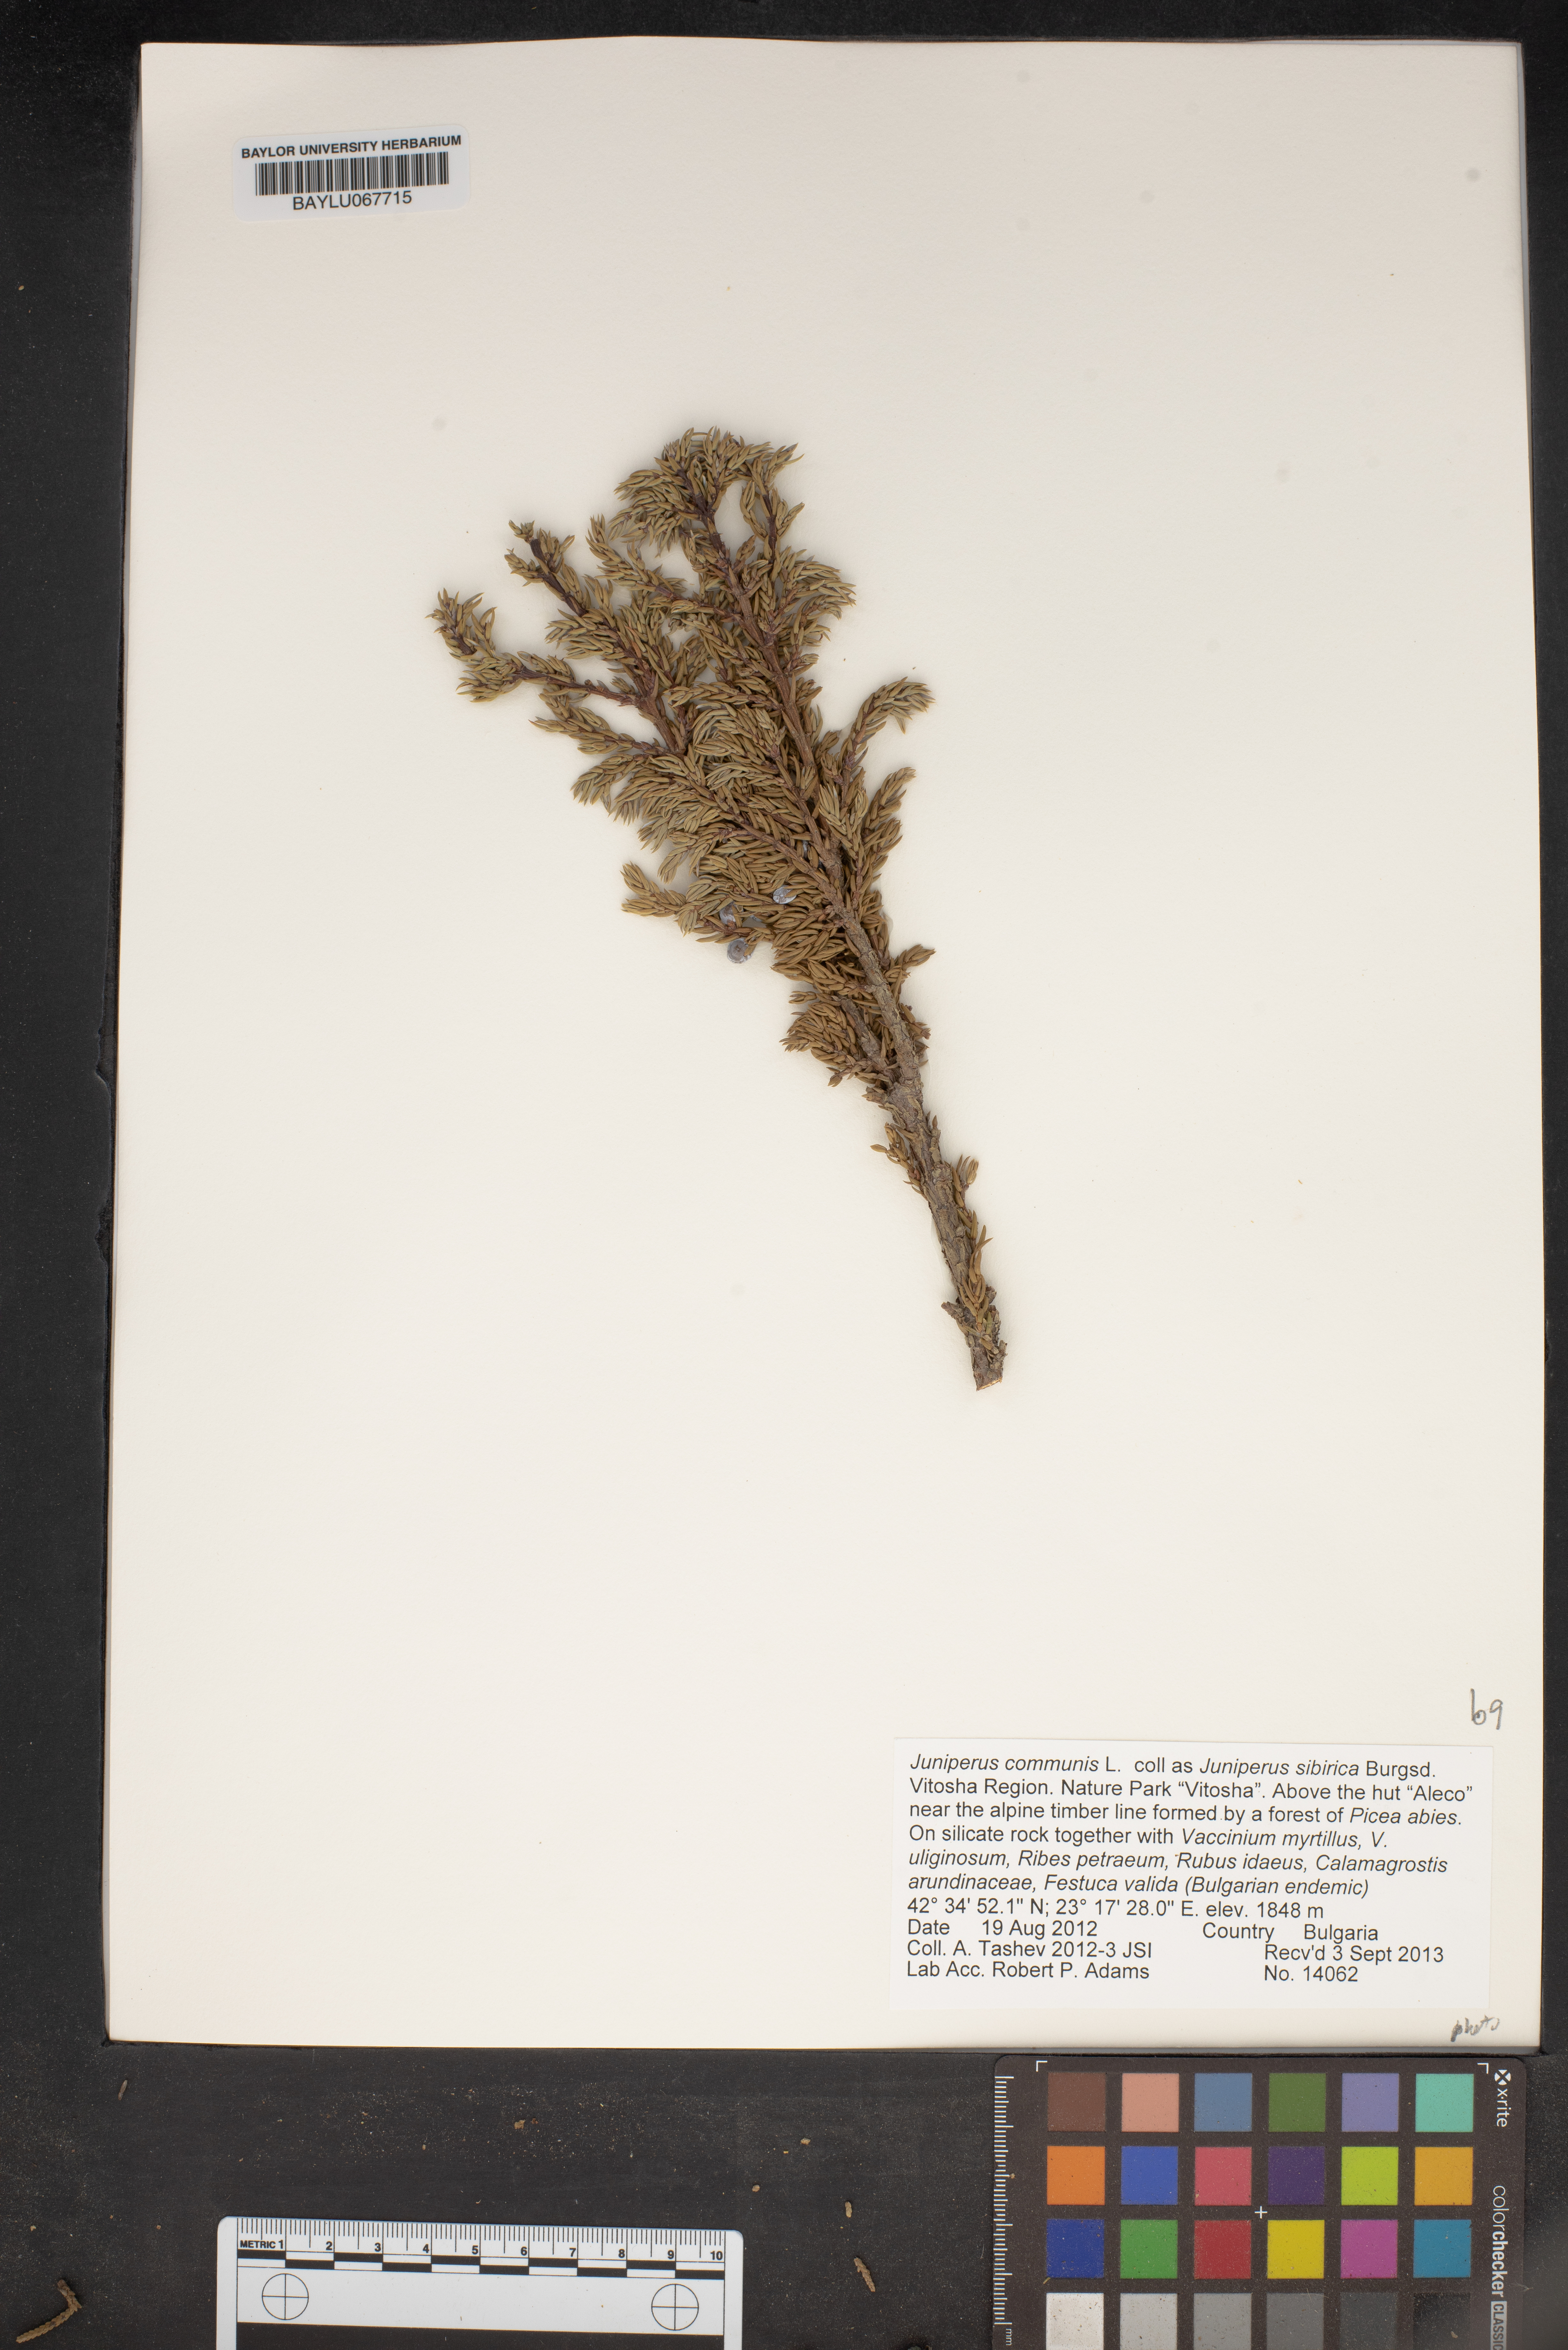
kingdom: Plantae
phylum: Tracheophyta
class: Pinopsida
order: Pinales
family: Cupressaceae
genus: Juniperus
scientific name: Juniperus communis
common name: Common juniper
